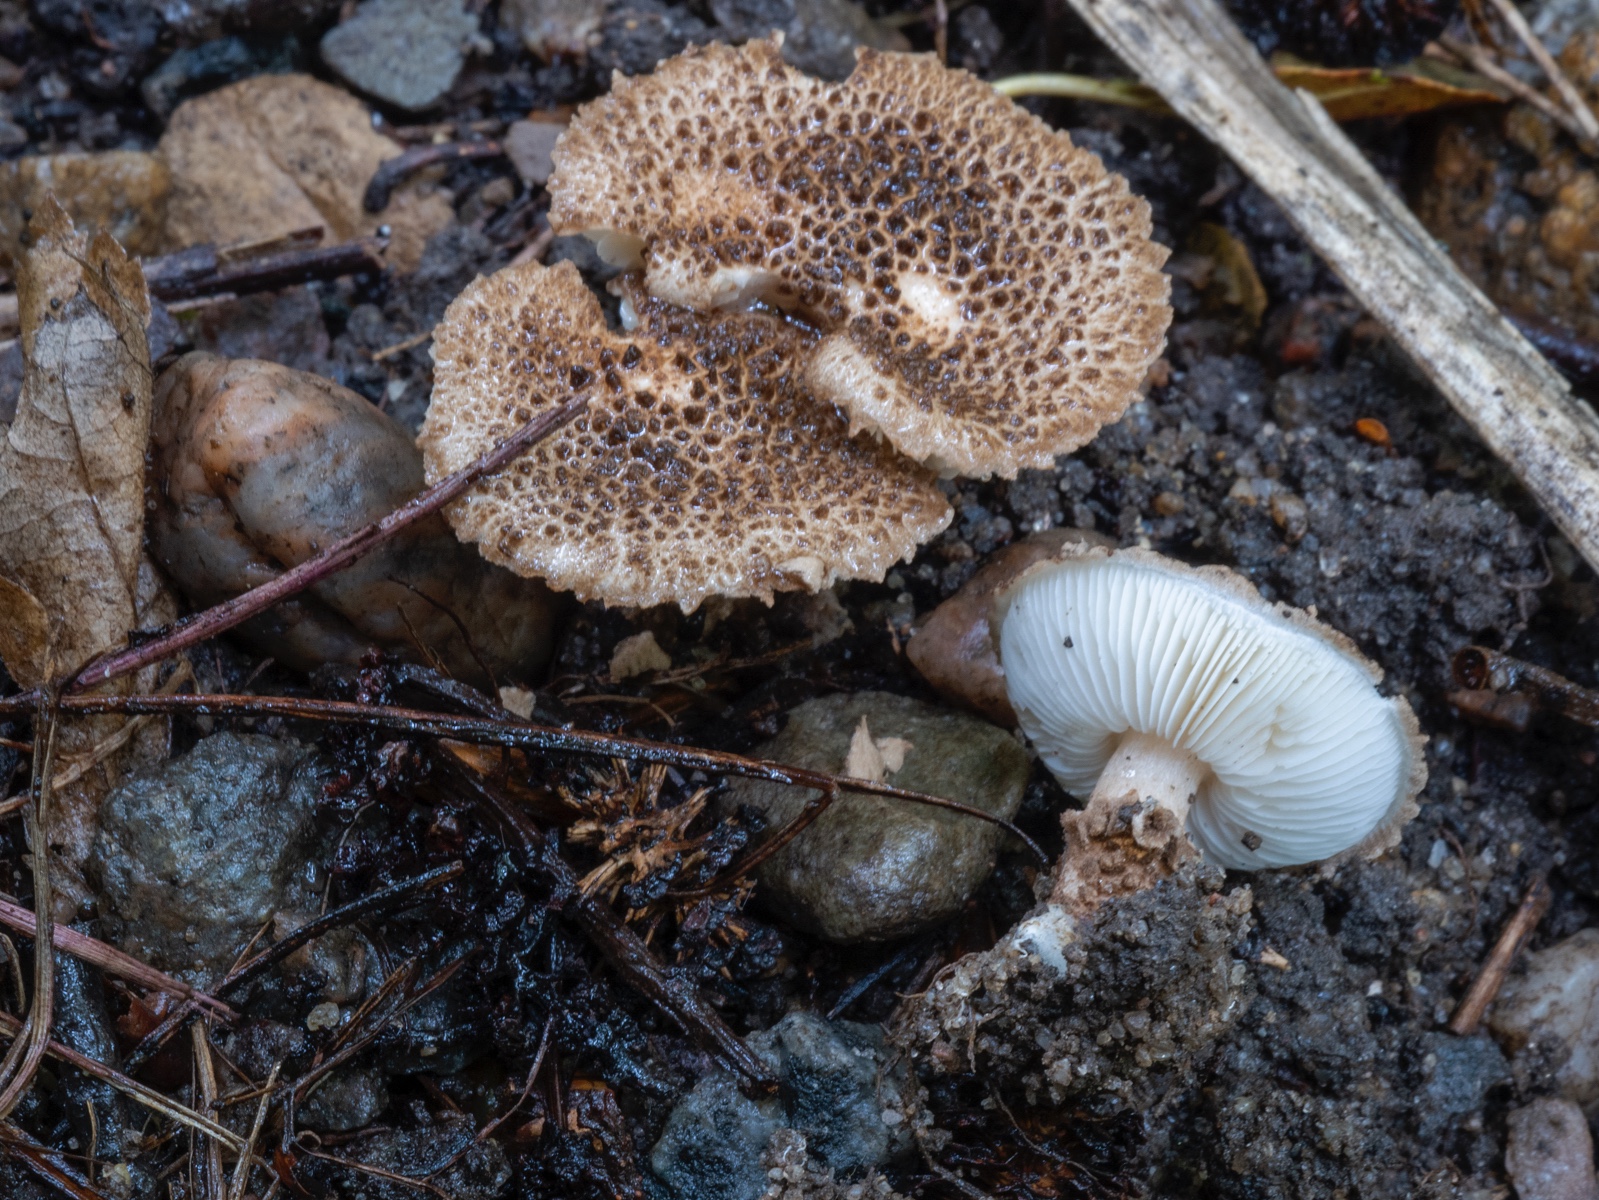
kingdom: Fungi
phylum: Basidiomycota
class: Agaricomycetes
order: Agaricales
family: Agaricaceae
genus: Echinoderma
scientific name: Echinoderma jacobi
